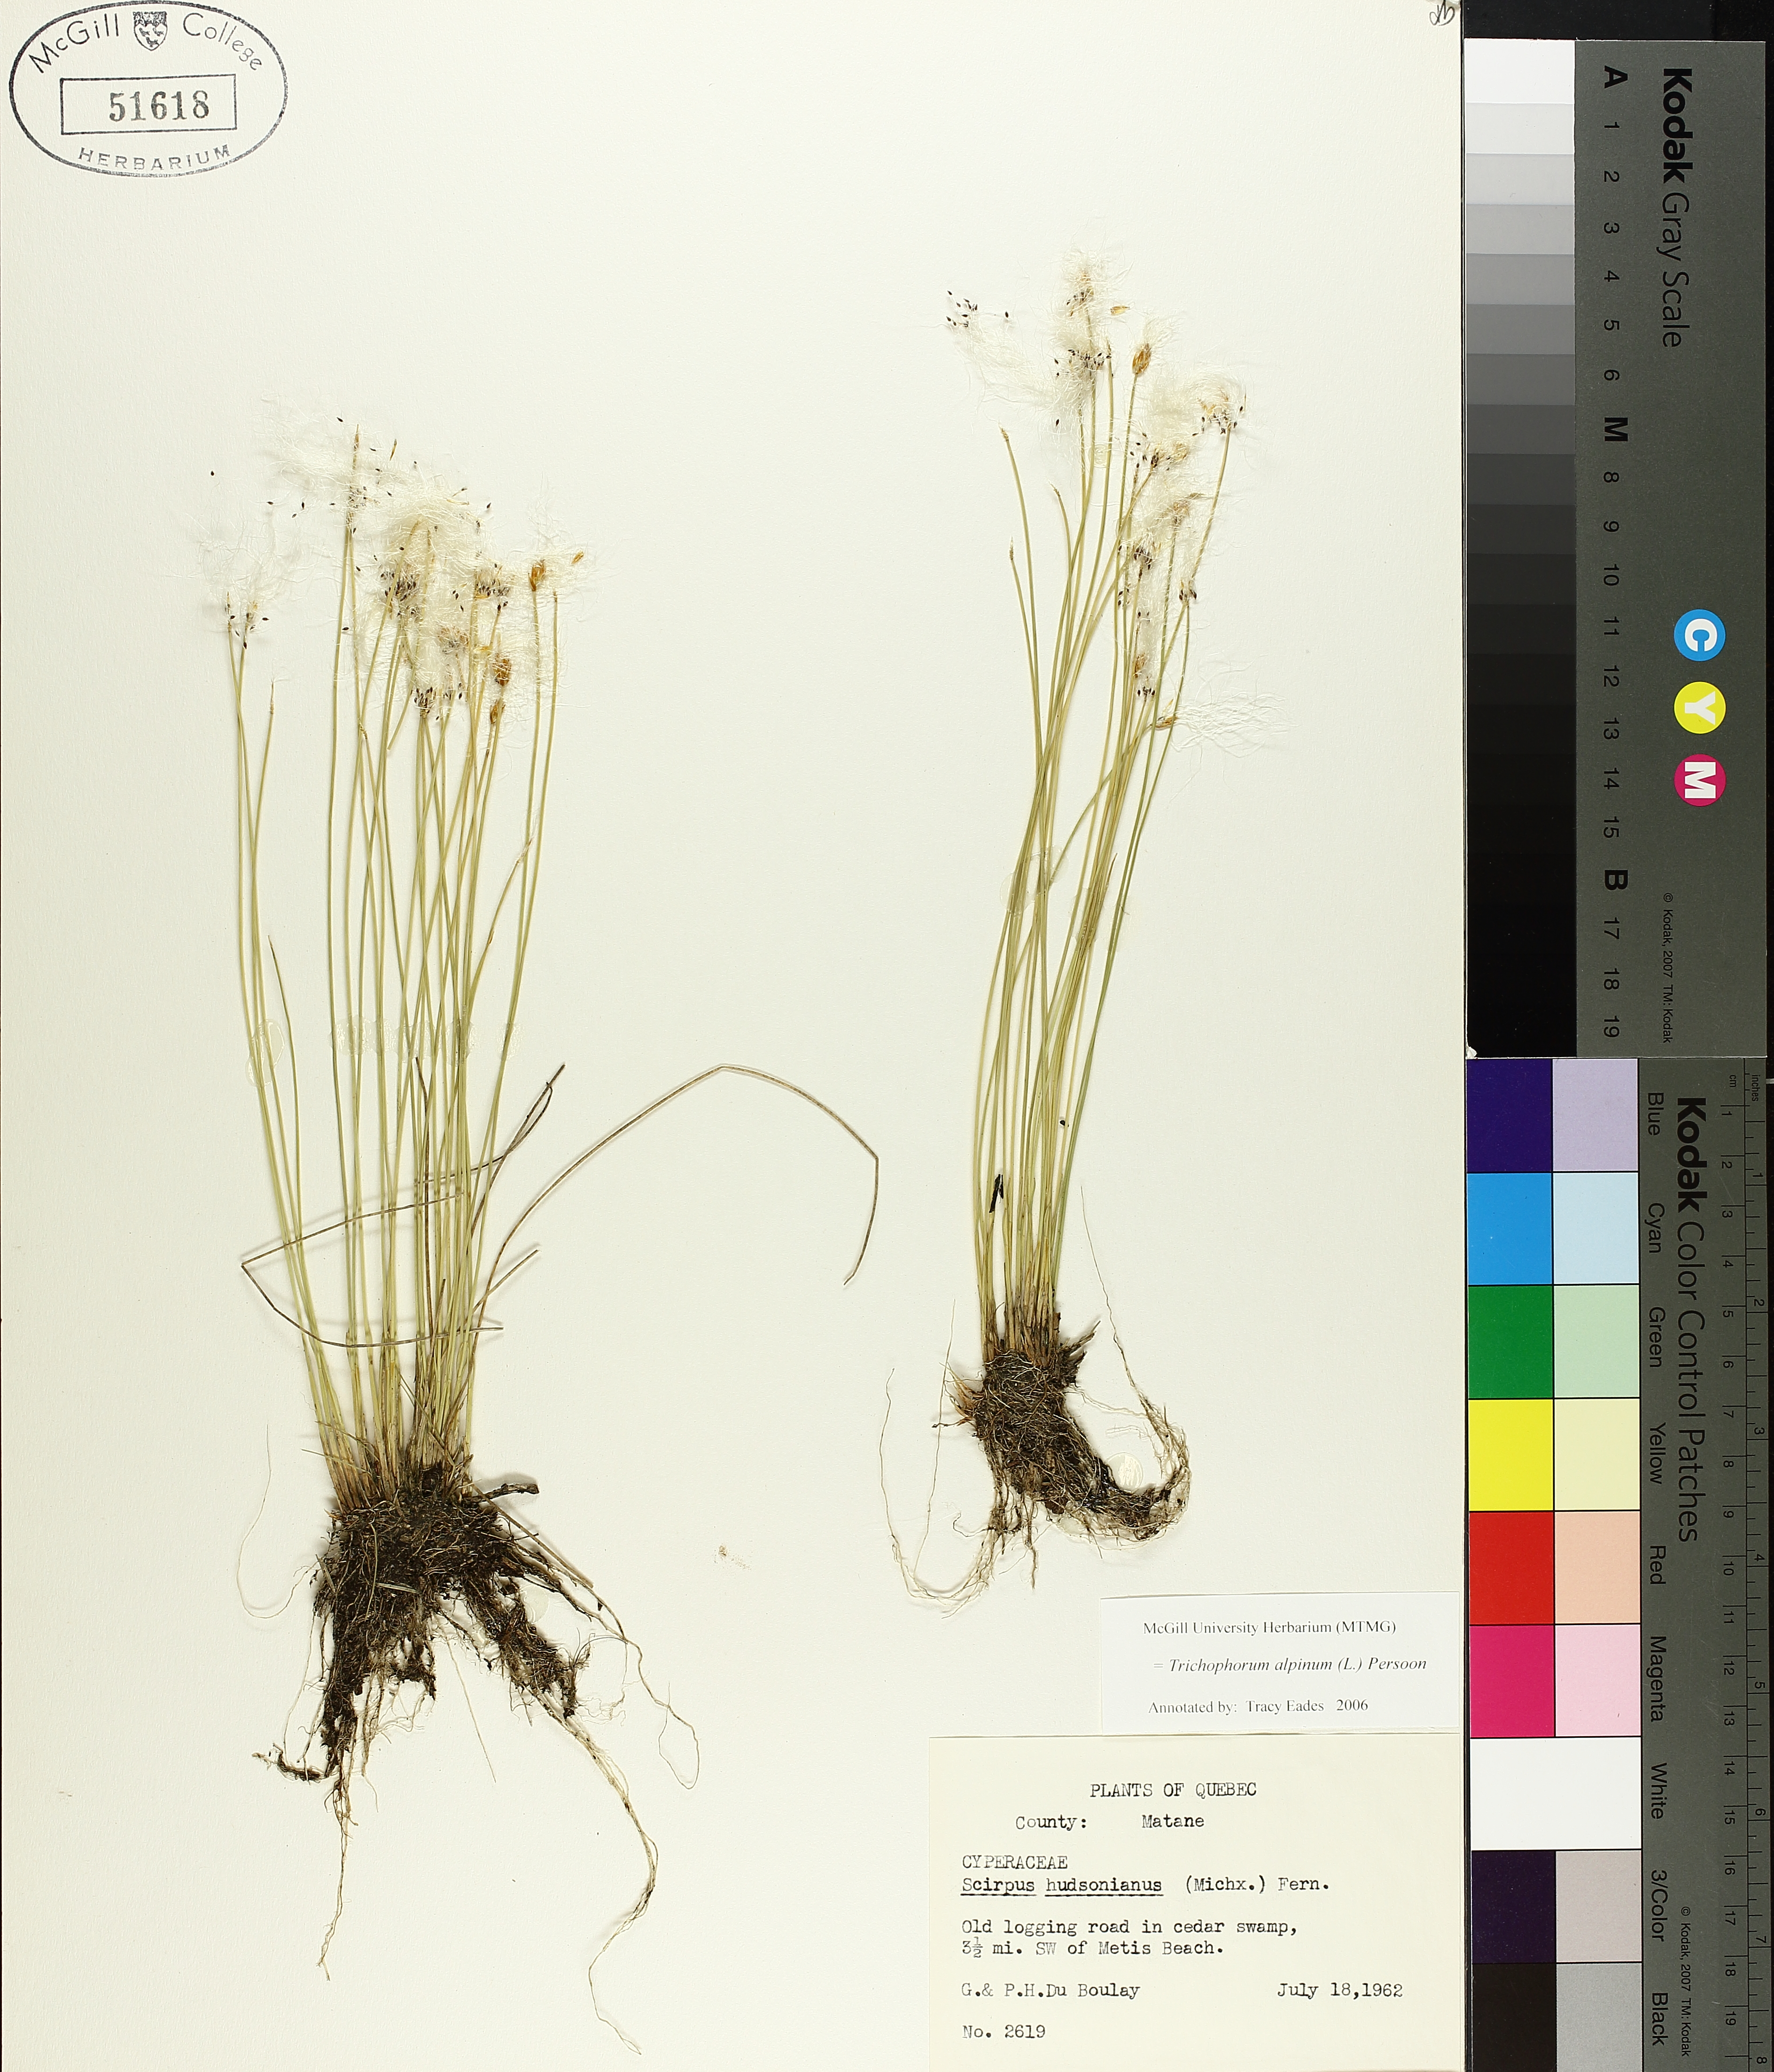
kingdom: Plantae
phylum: Tracheophyta
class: Liliopsida
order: Poales
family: Cyperaceae
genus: Trichophorum
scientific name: Trichophorum alpinum
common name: Alpine bulrush
